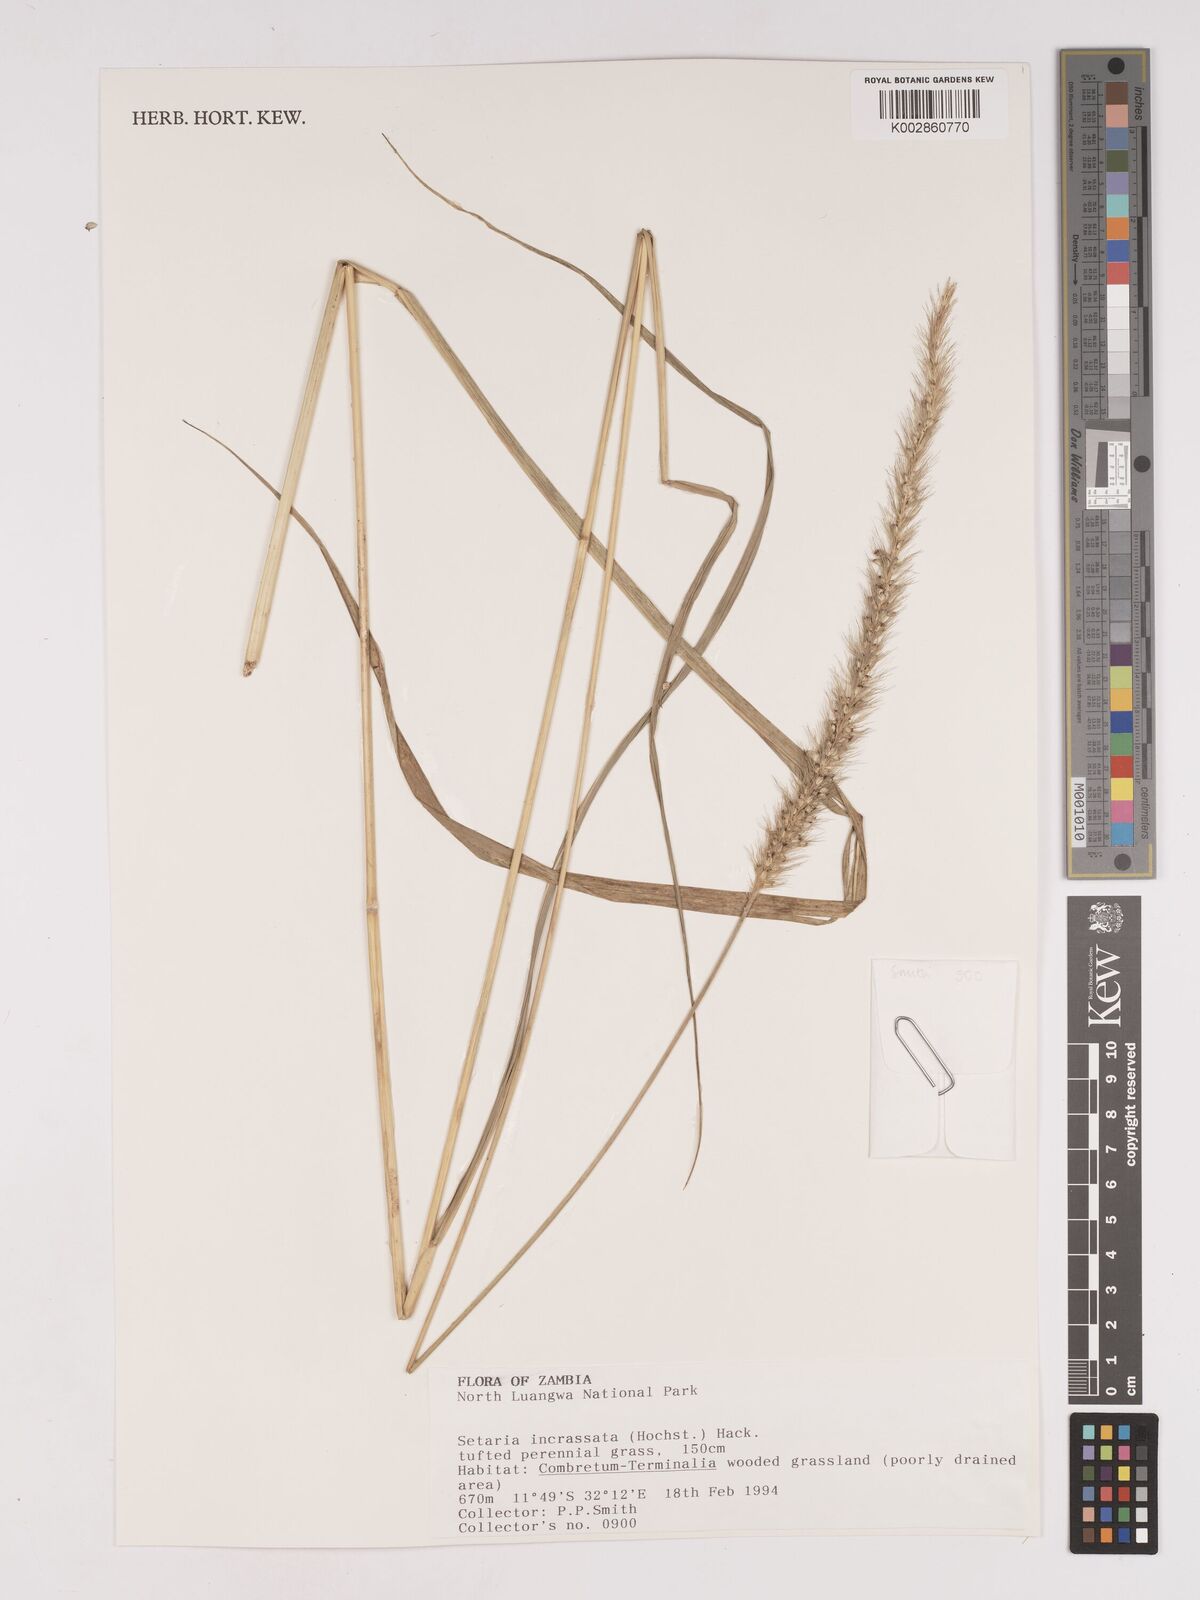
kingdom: Plantae
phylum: Tracheophyta
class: Liliopsida
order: Poales
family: Poaceae
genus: Setaria
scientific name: Setaria incrassata
